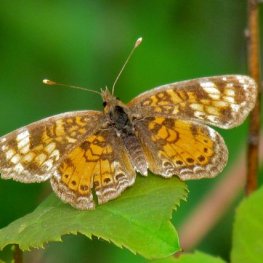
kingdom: Animalia
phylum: Arthropoda
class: Insecta
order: Lepidoptera
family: Nymphalidae
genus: Phyciodes
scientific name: Phyciodes tharos
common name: Northern Crescent
